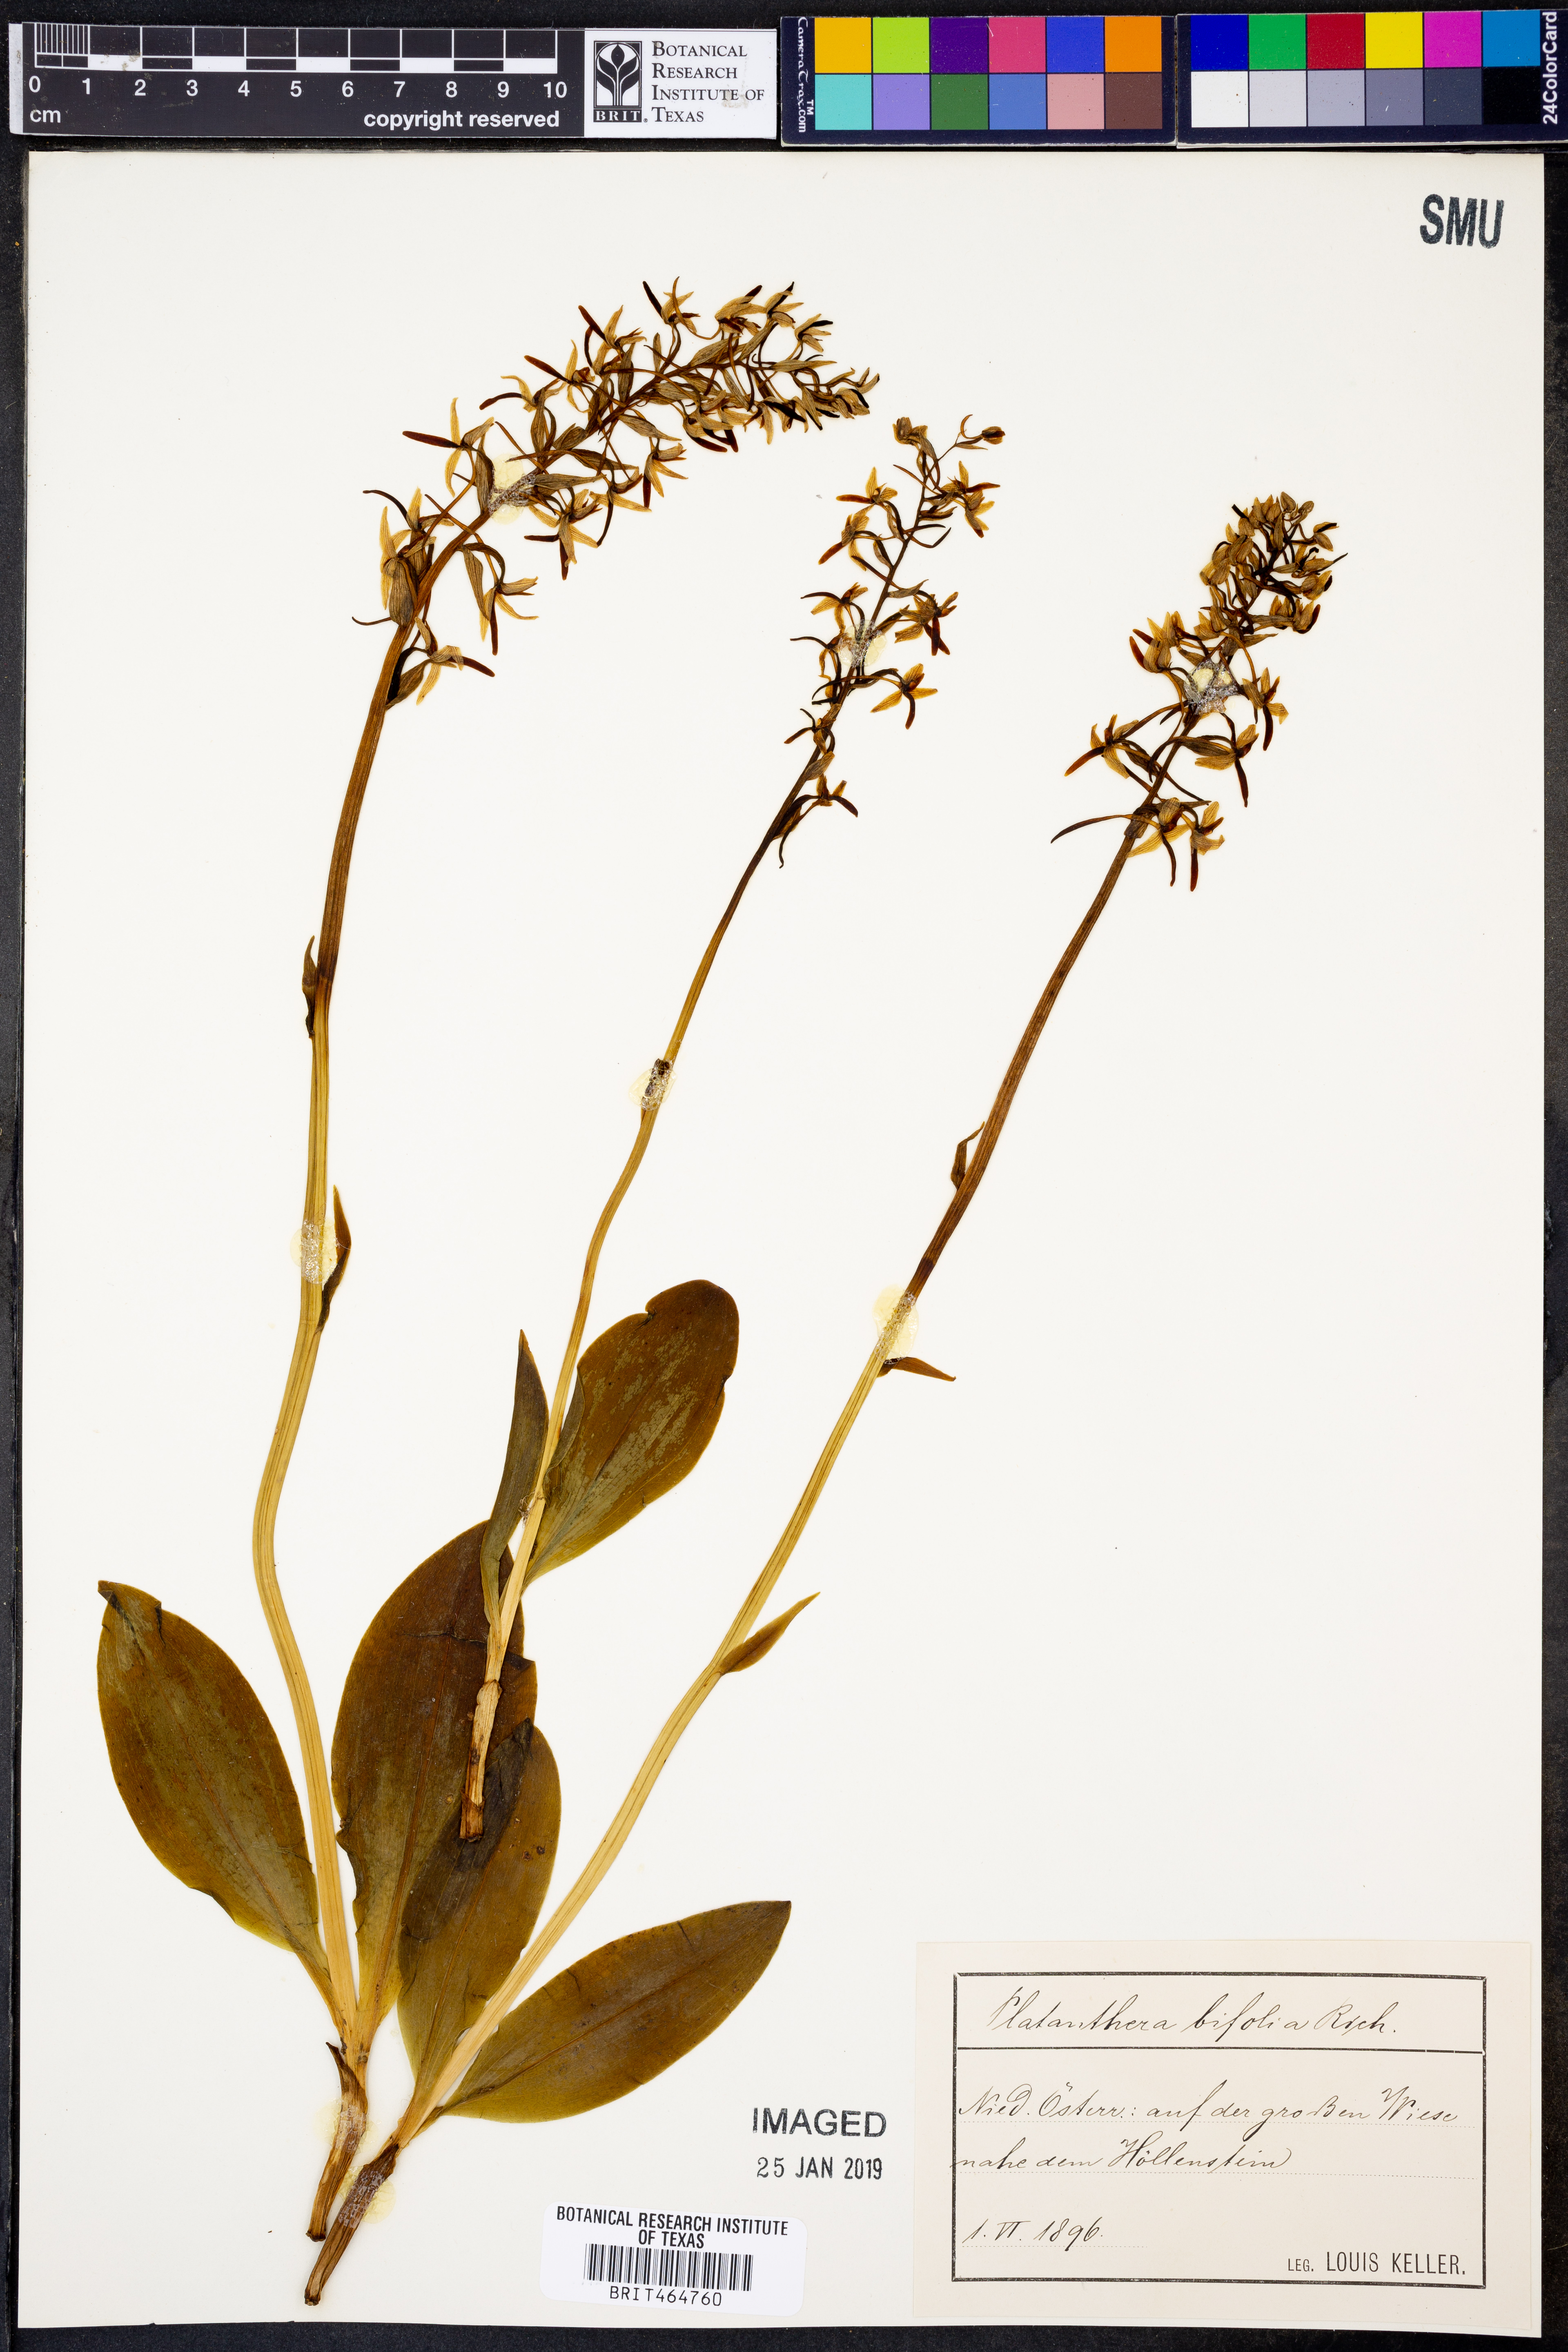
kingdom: Plantae
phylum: Tracheophyta
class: Liliopsida
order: Asparagales
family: Orchidaceae
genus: Platanthera
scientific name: Platanthera bifolia
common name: Lesser butterfly-orchid
